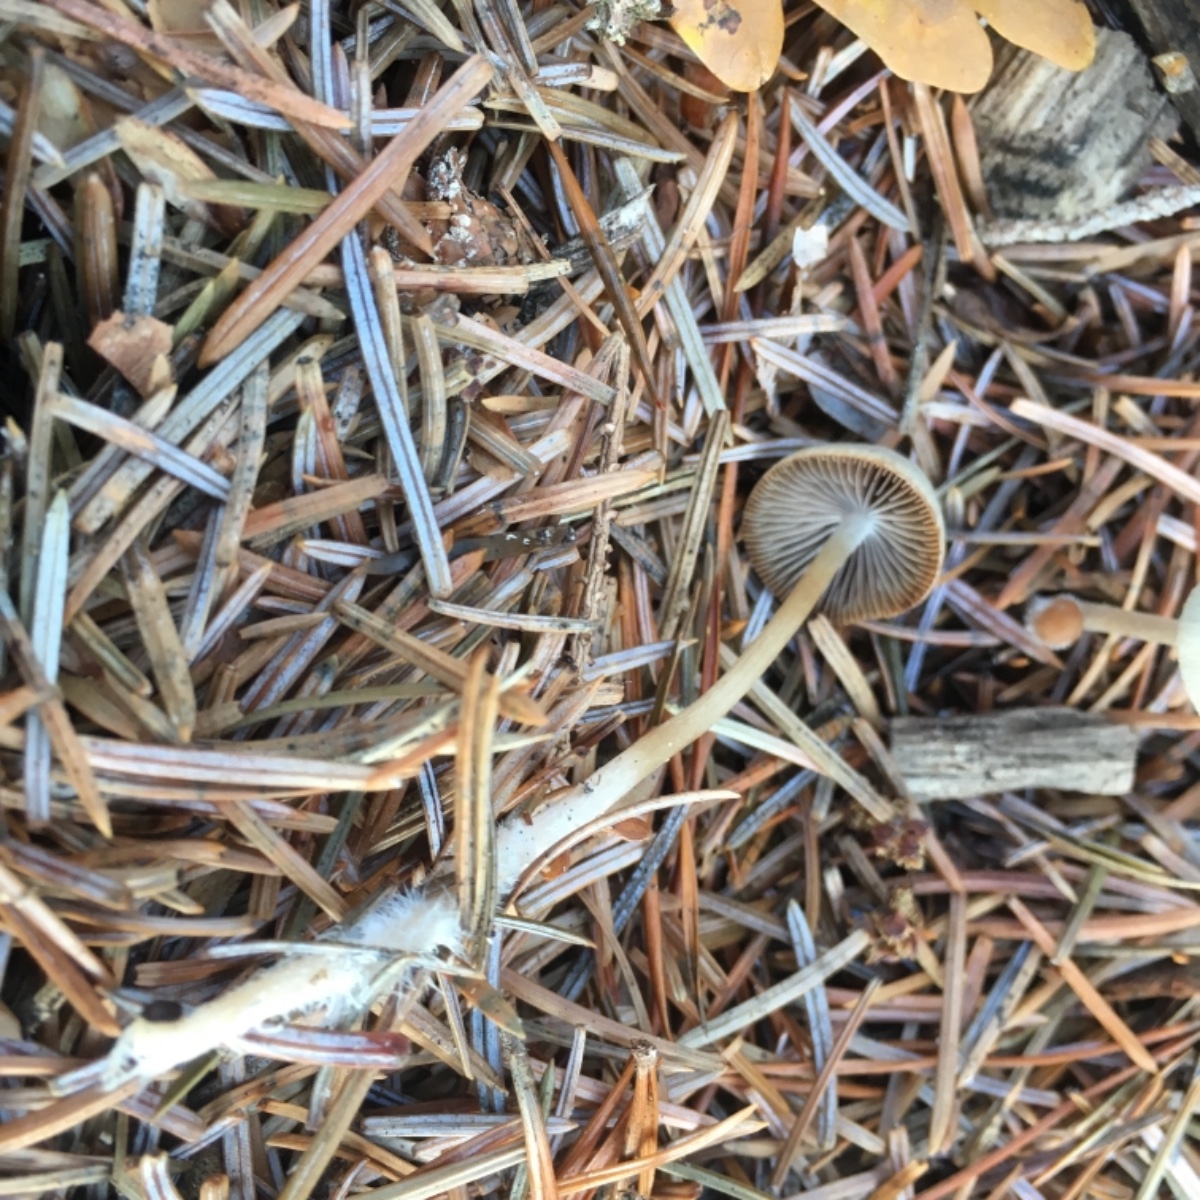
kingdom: Fungi
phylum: Basidiomycota
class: Agaricomycetes
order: Agaricales
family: Psathyrellaceae
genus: Psathyrella
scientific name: Psathyrella
